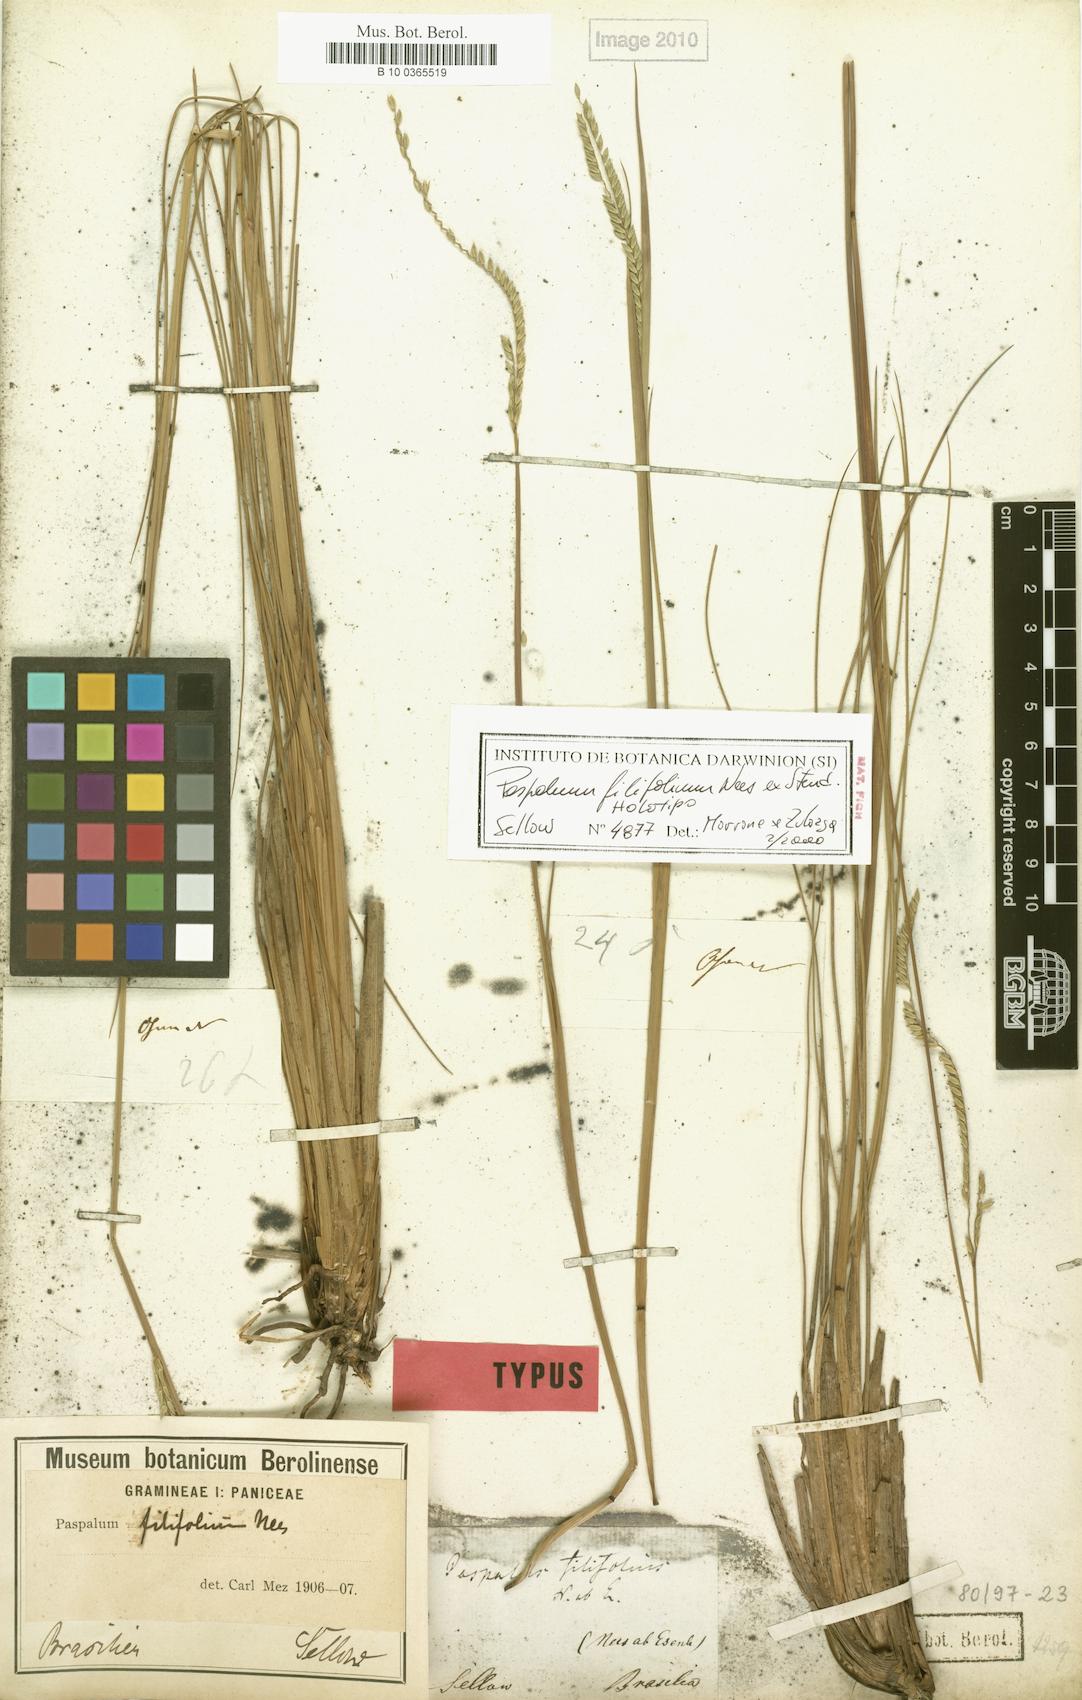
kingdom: Plantae
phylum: Tracheophyta
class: Liliopsida
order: Poales
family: Poaceae
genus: Paspalum
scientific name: Paspalum filifolium
